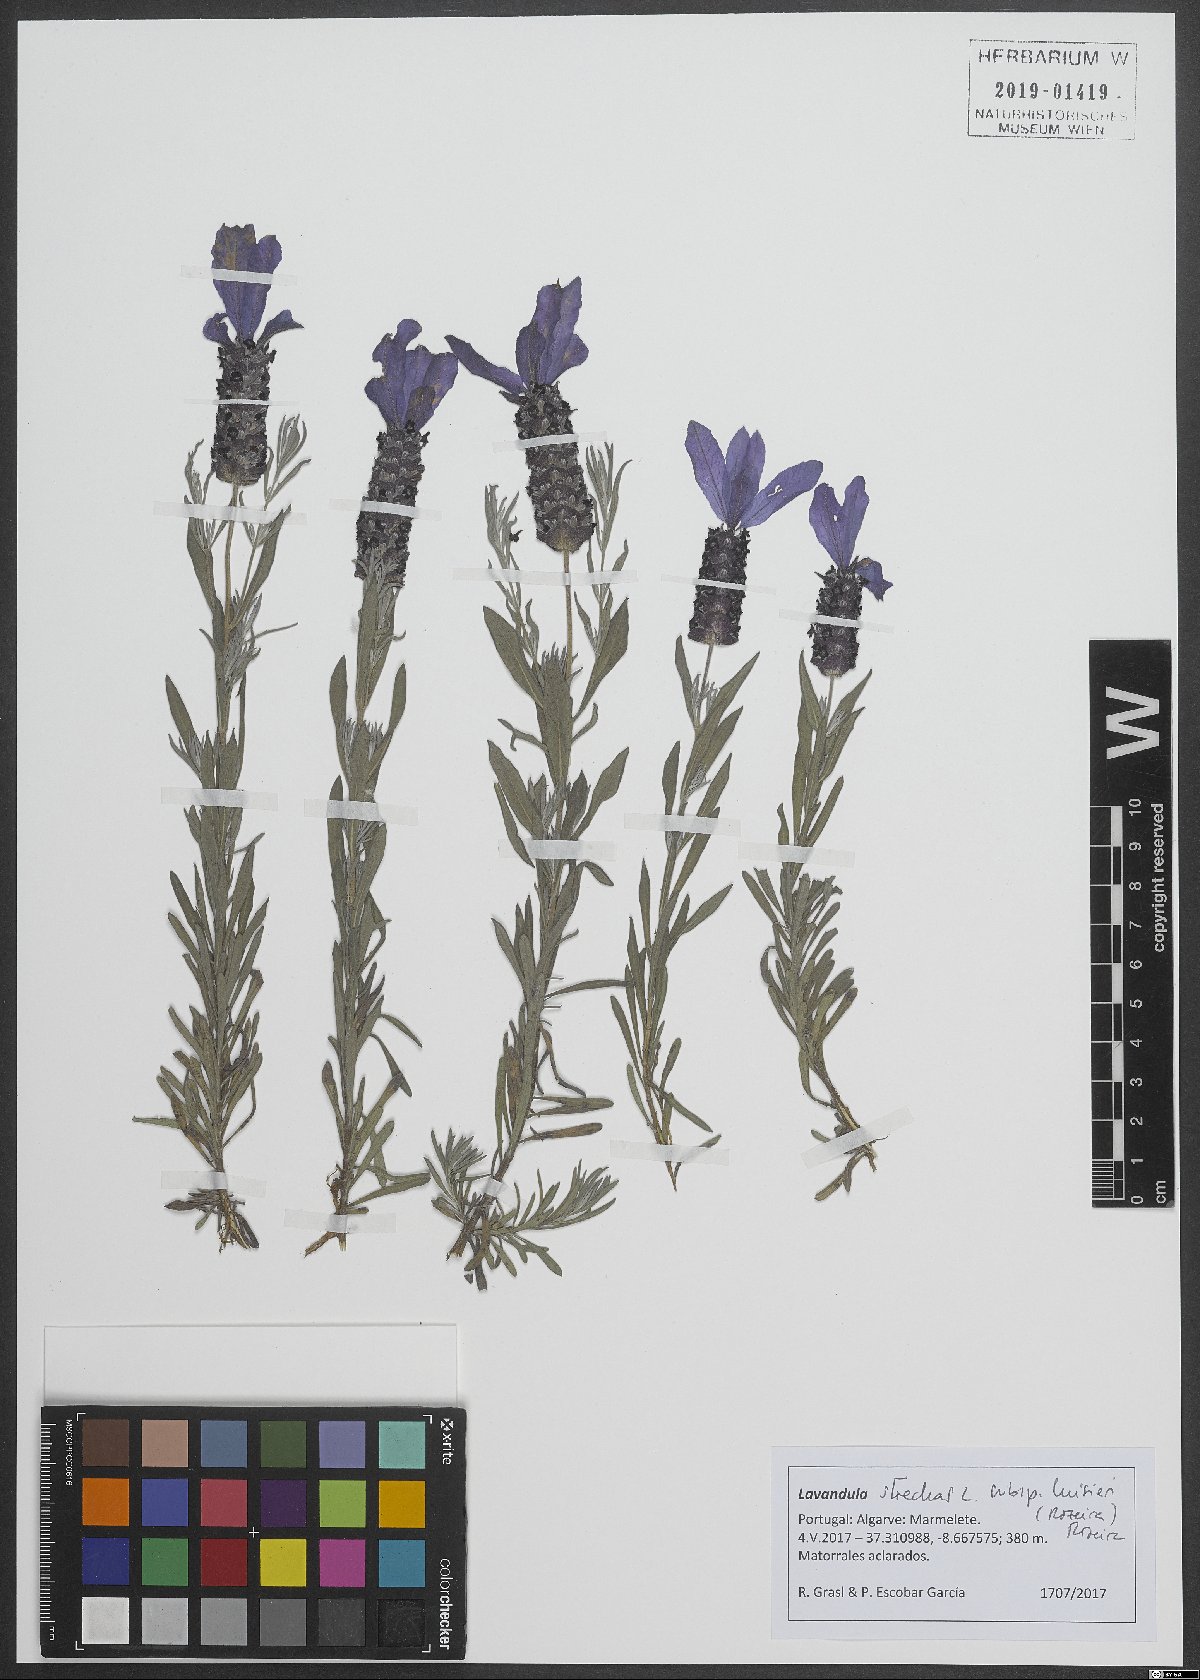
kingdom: Plantae
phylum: Tracheophyta
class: Magnoliopsida
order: Lamiales
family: Lamiaceae
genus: Lavandula
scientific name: Lavandula stoechas
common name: French lavender
